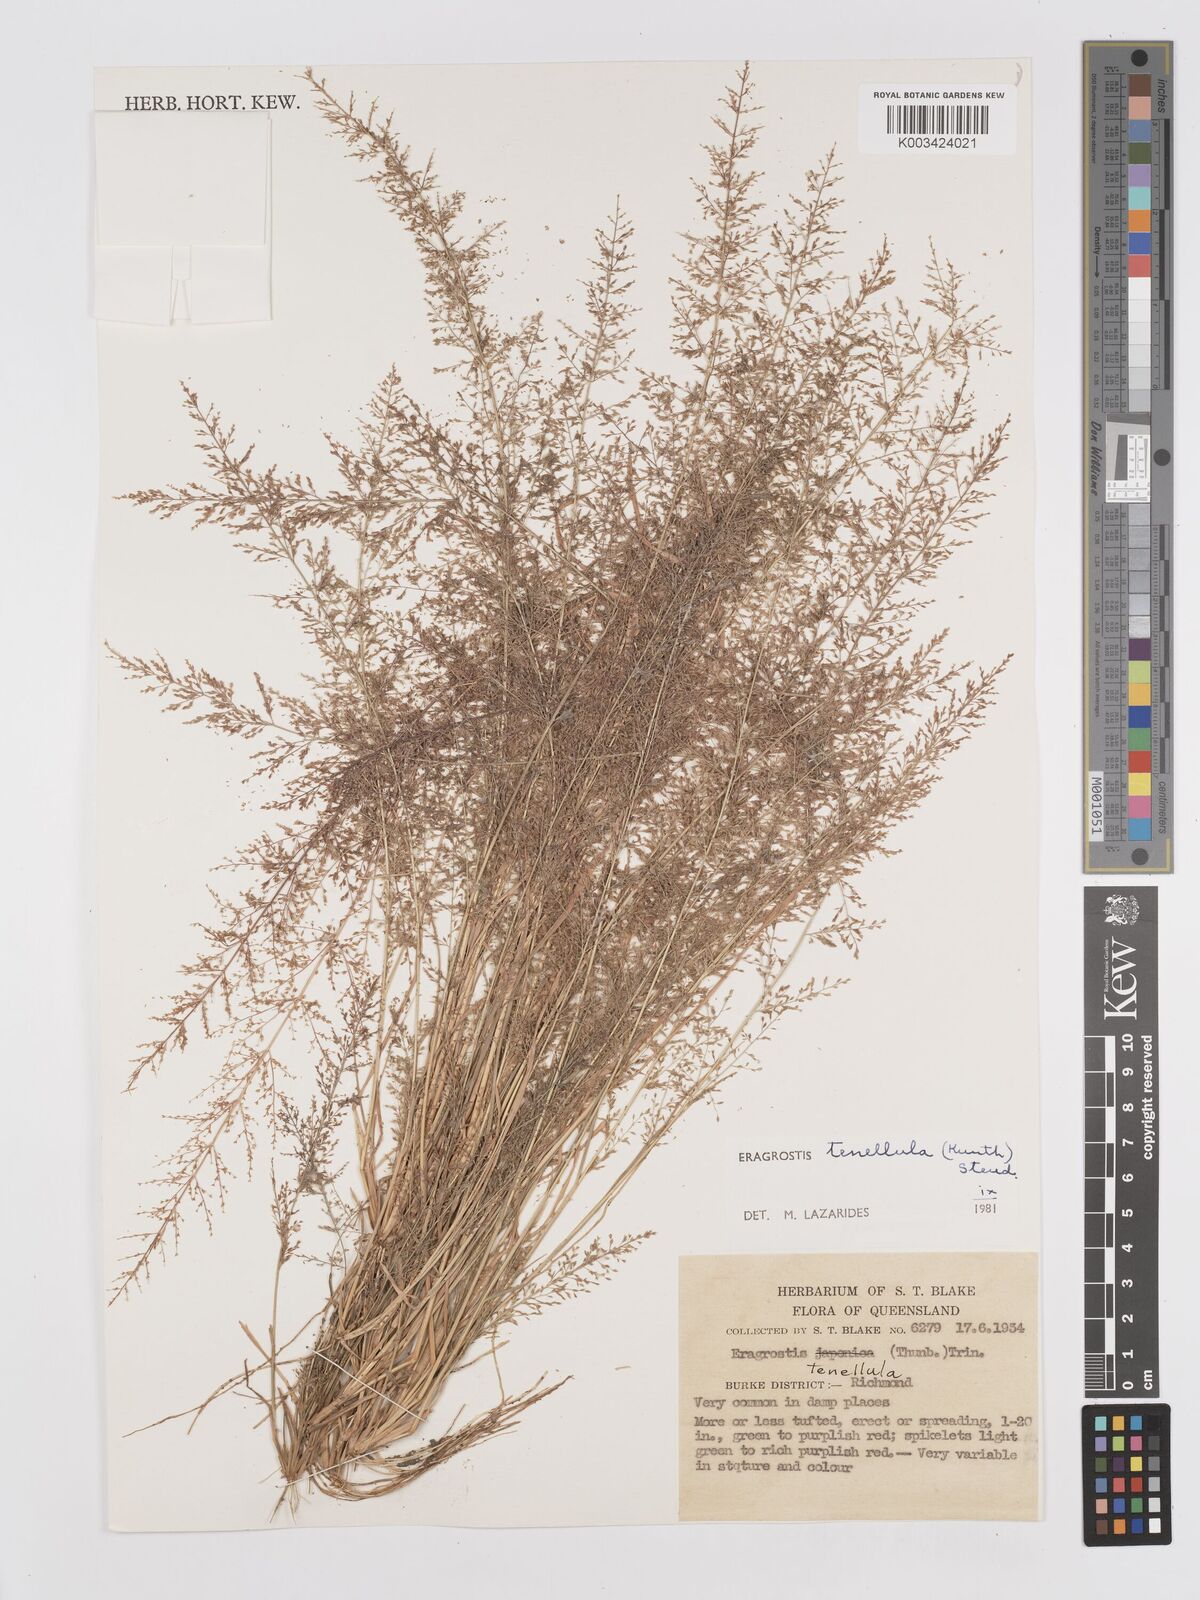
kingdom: Plantae
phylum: Tracheophyta
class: Liliopsida
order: Poales
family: Poaceae
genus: Eragrostis
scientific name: Eragrostis tenellula
